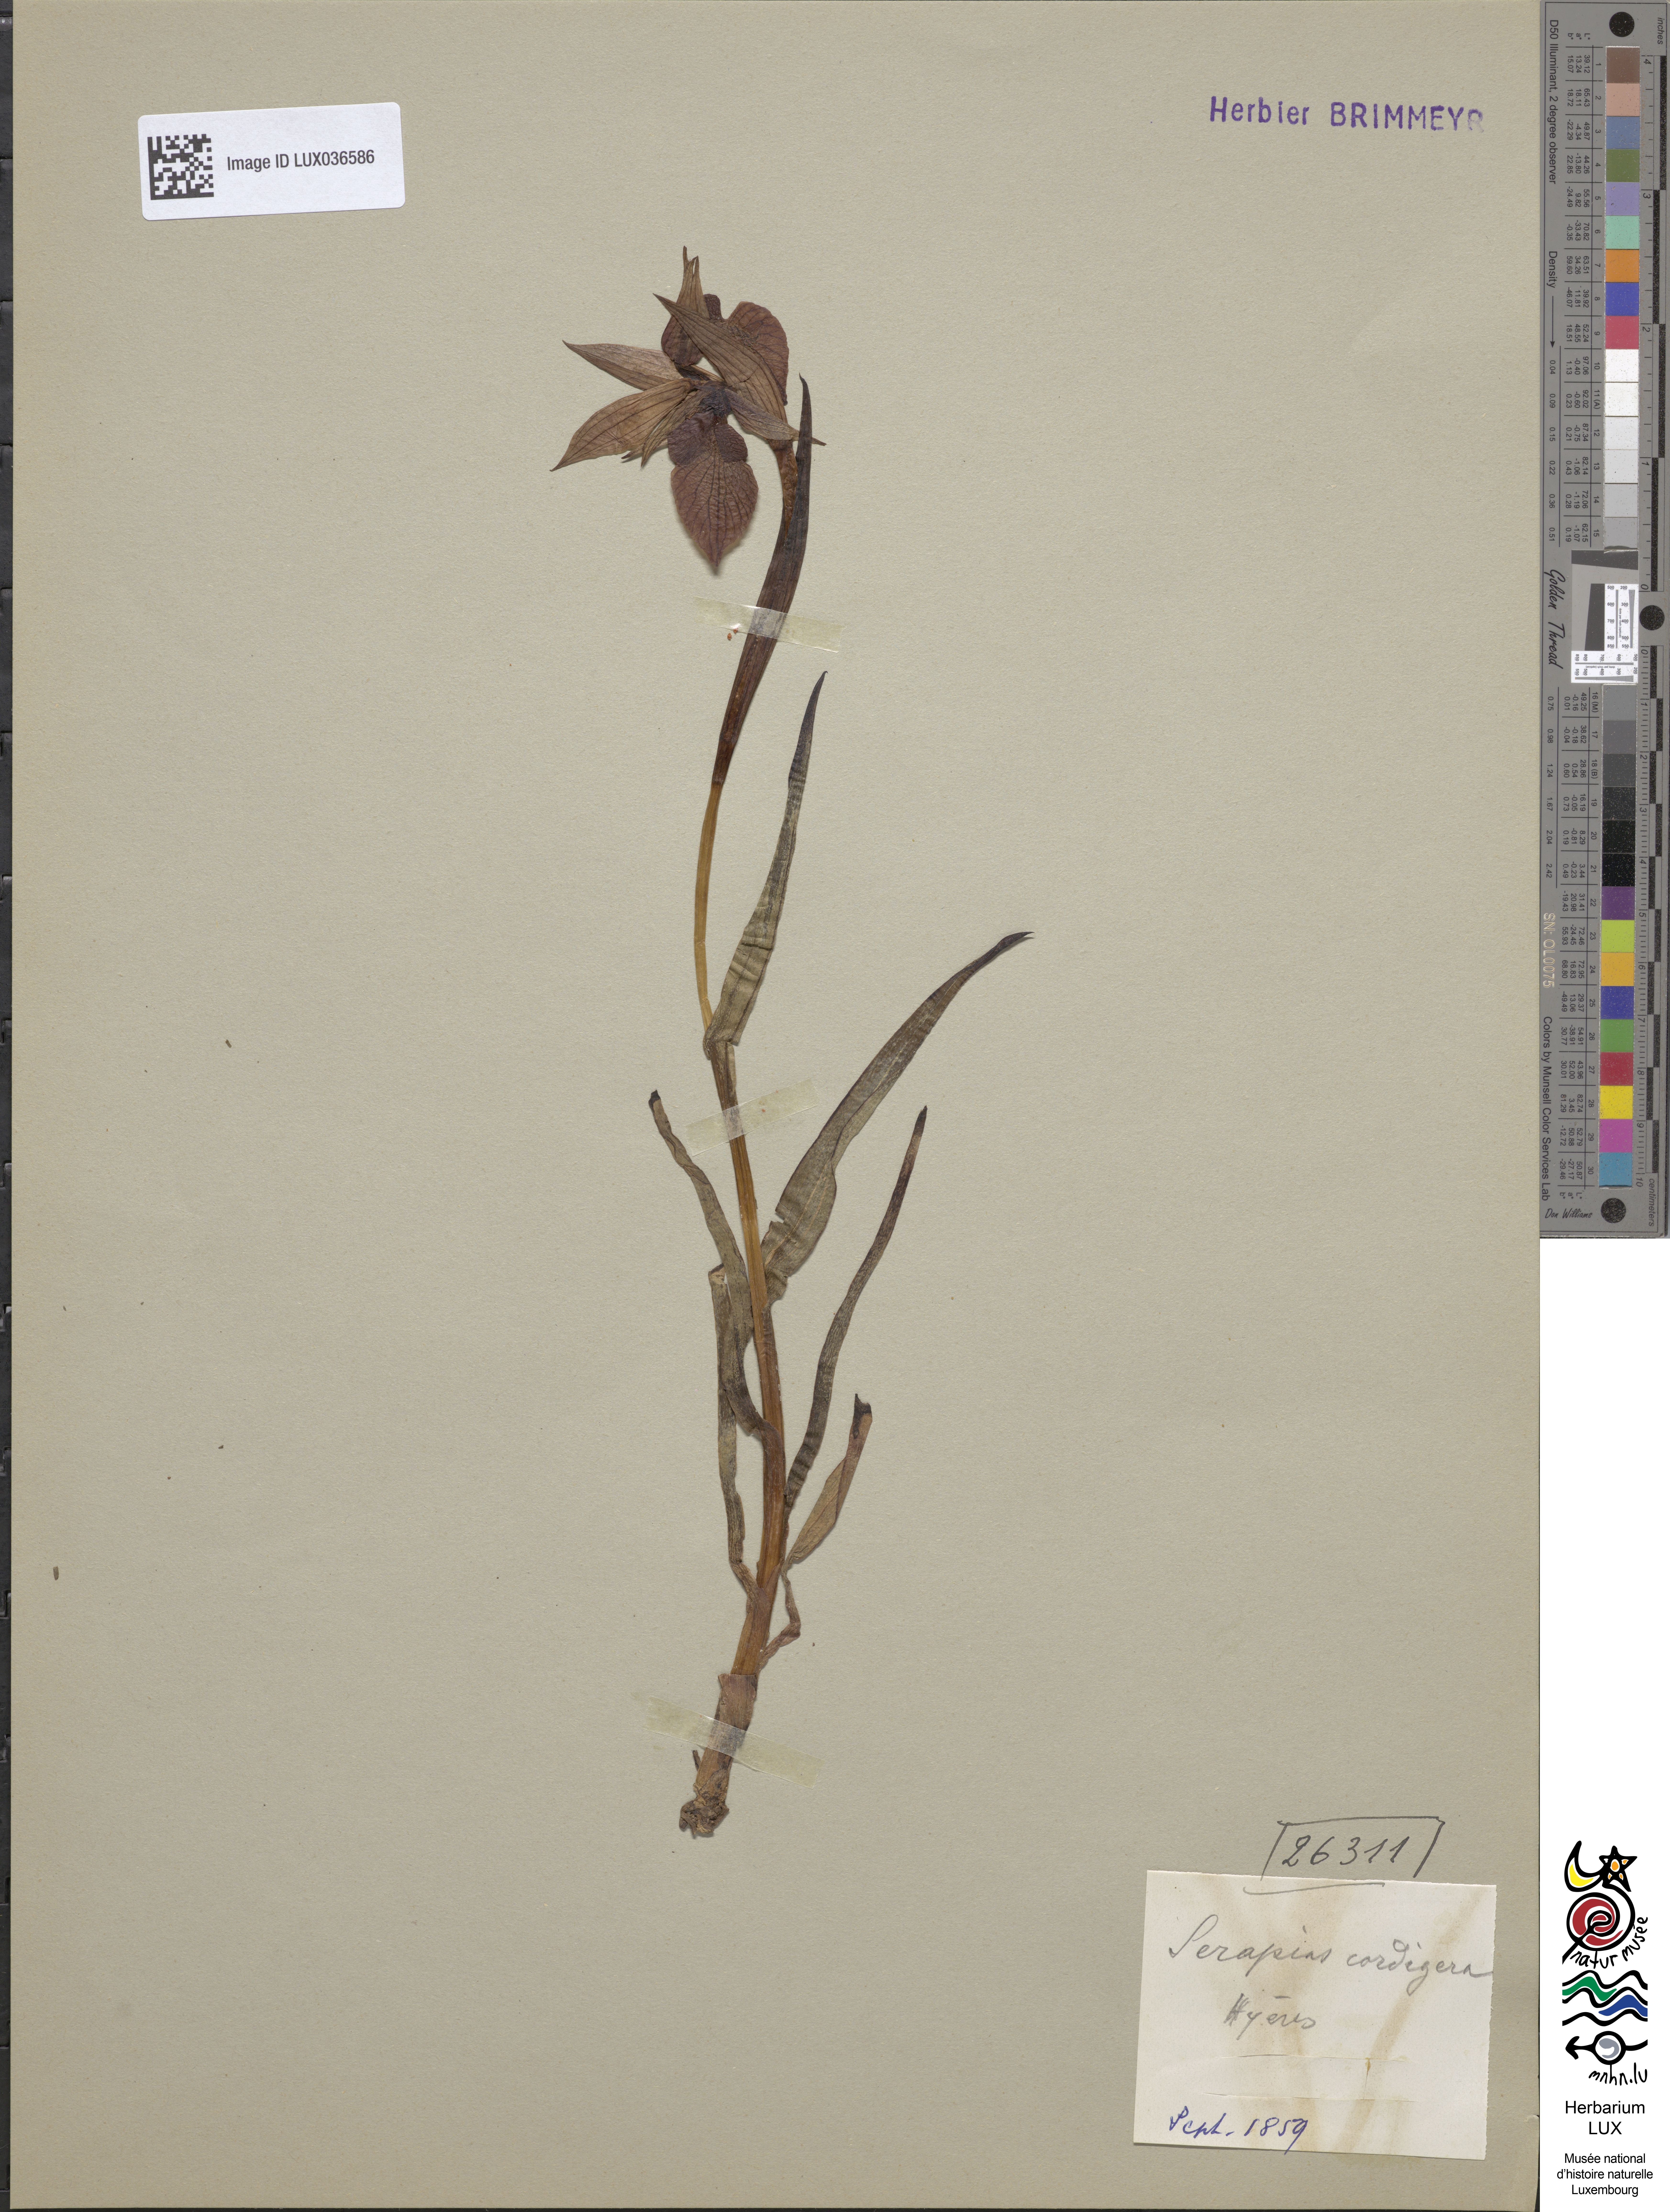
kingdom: Plantae
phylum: Tracheophyta
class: Liliopsida
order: Asparagales
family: Orchidaceae
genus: Serapias
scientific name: Serapias cordigera
